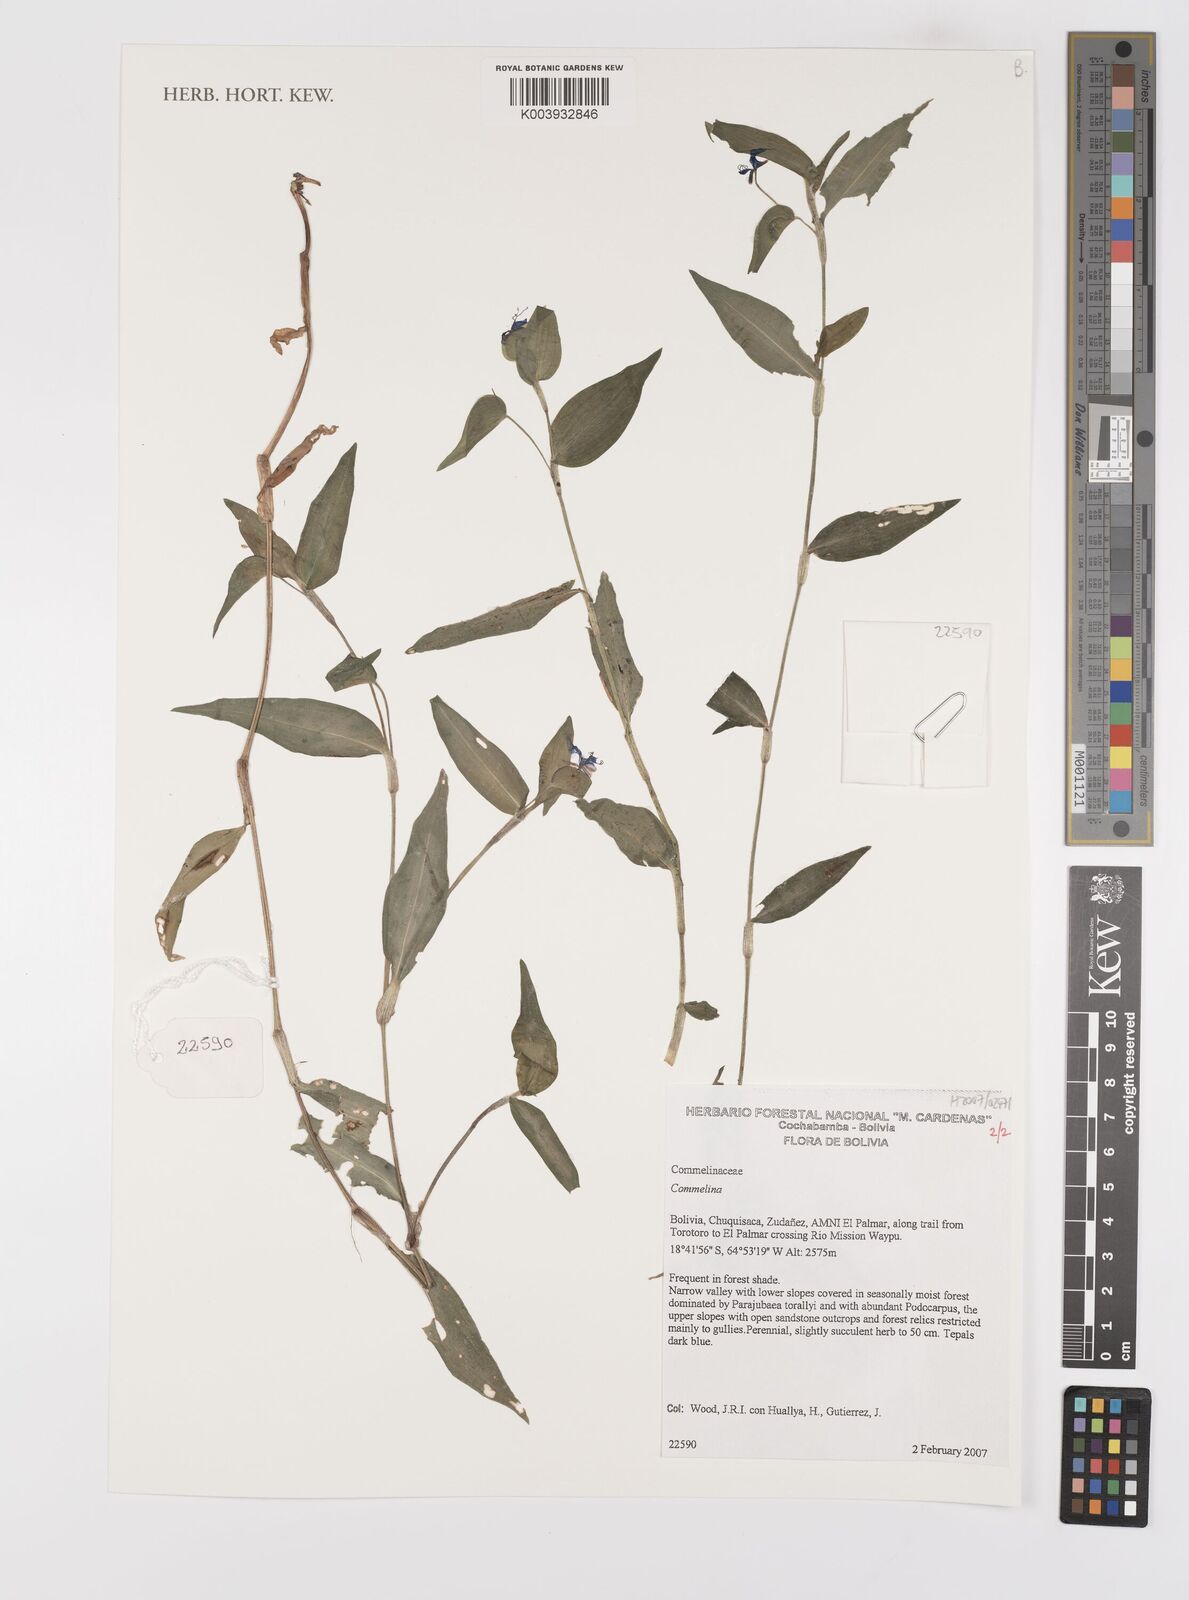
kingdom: Plantae
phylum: Tracheophyta
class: Liliopsida
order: Commelinales
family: Commelinaceae
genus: Commelina
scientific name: Commelina
